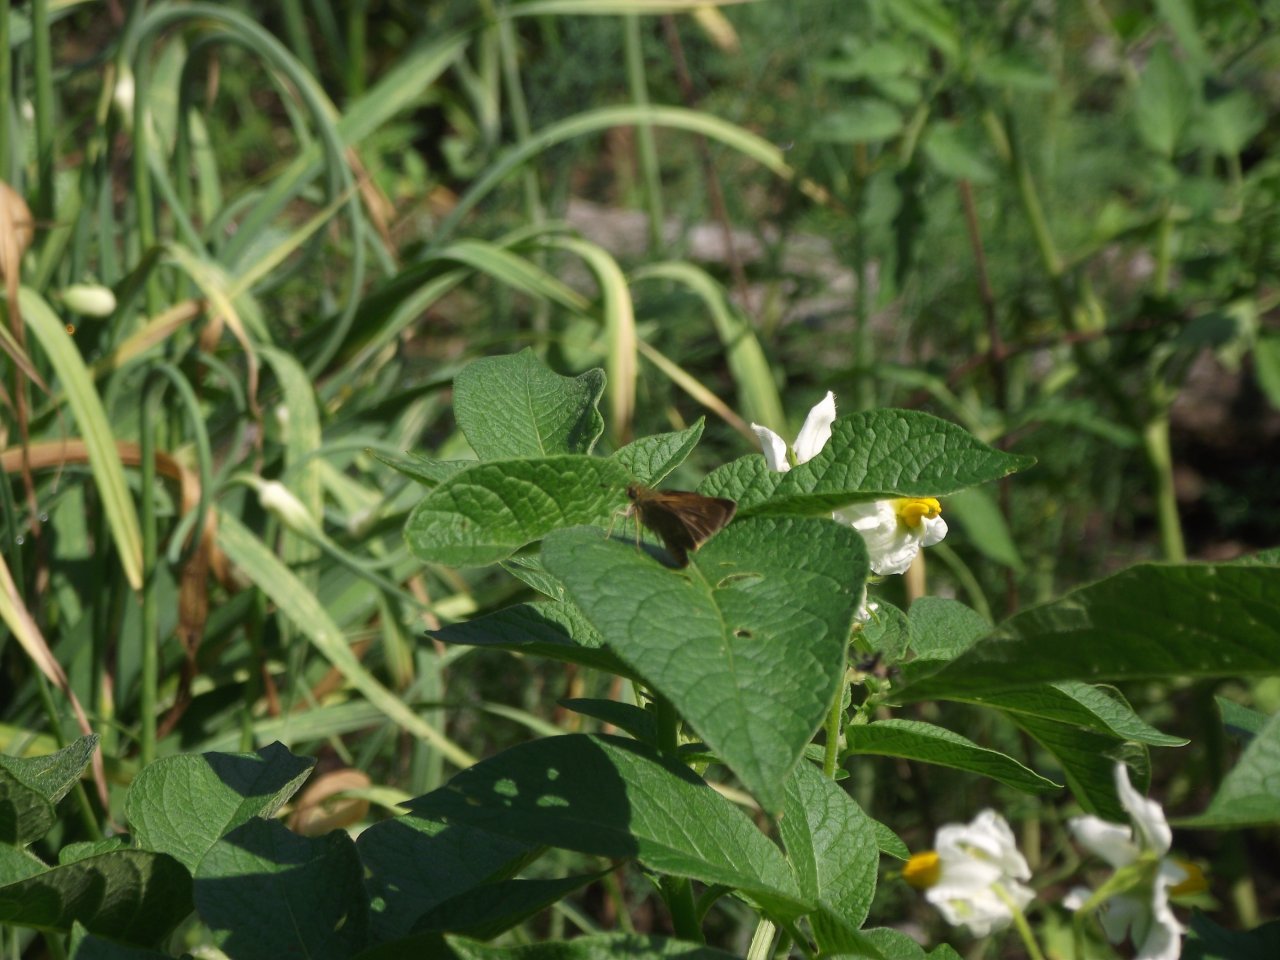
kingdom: Animalia
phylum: Arthropoda
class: Insecta
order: Lepidoptera
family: Hesperiidae
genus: Euphyes
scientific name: Euphyes vestris
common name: Dun Skipper
